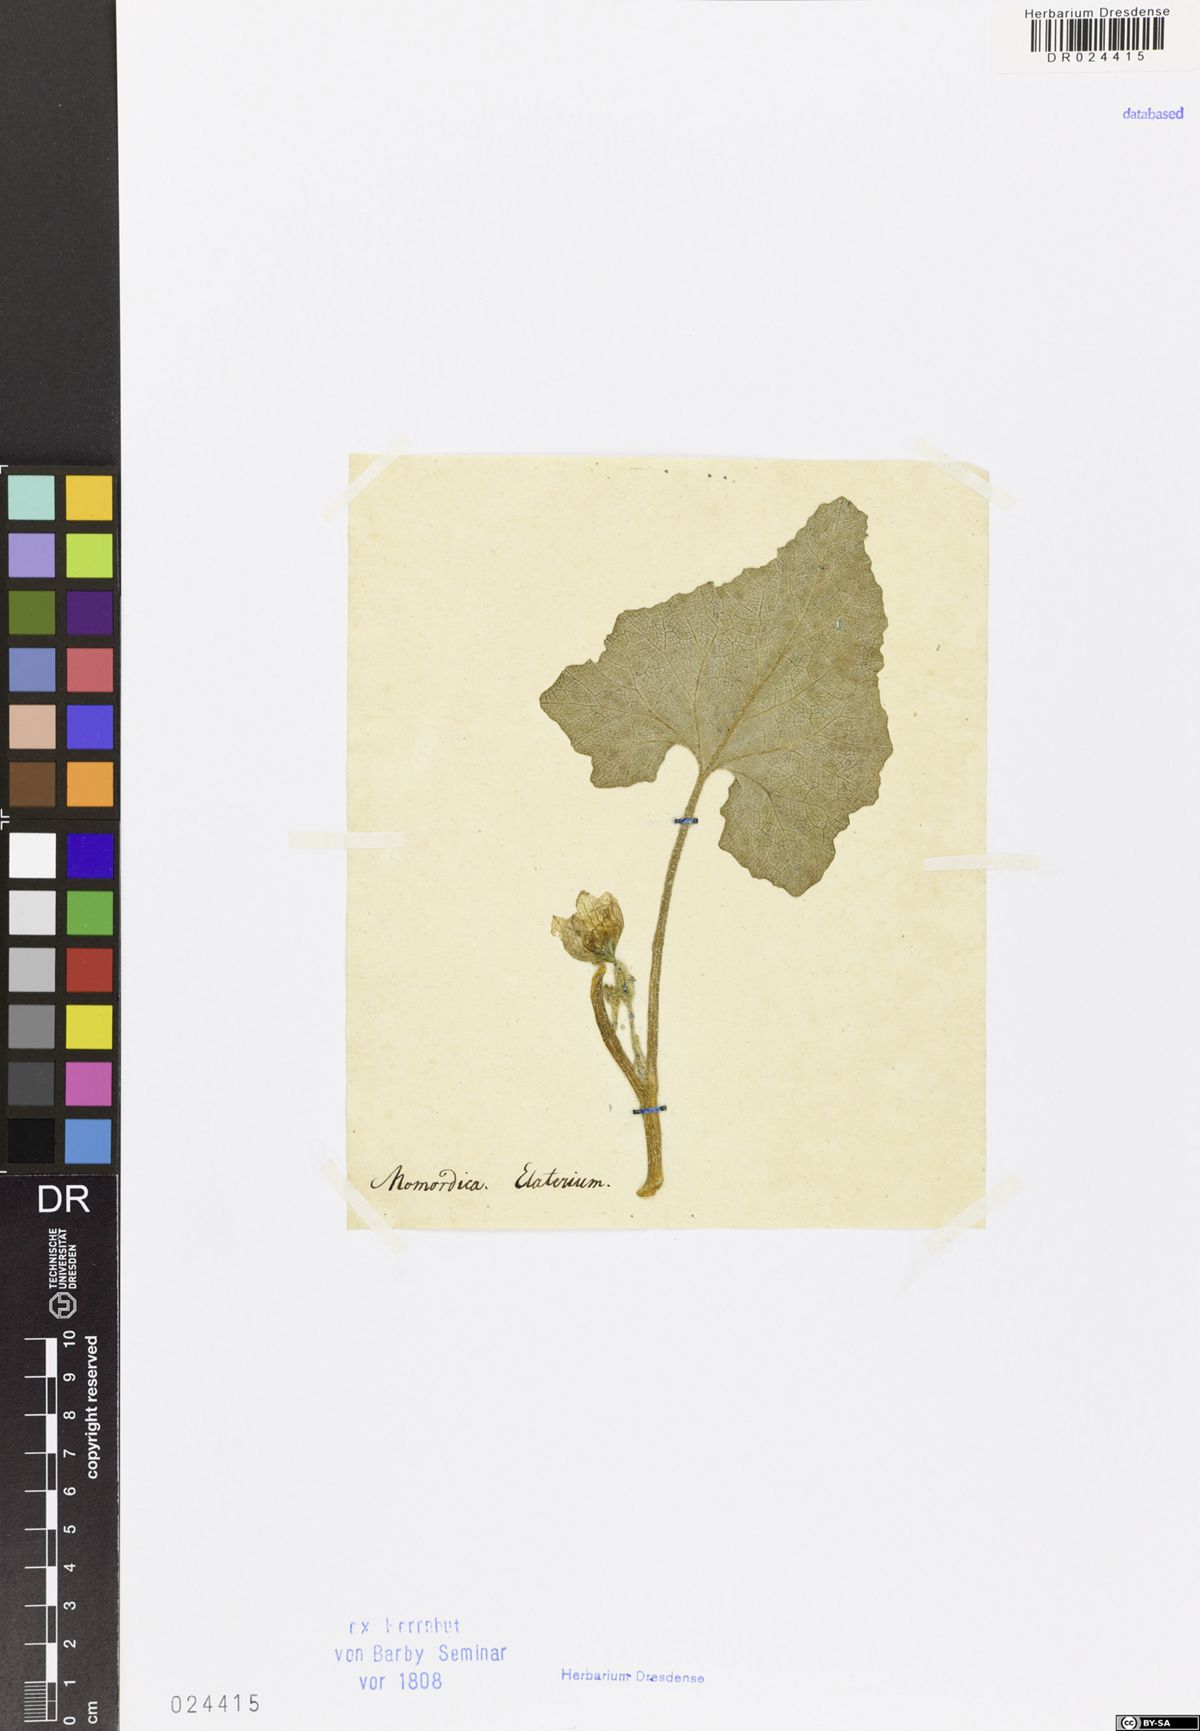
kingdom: Plantae
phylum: Tracheophyta
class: Magnoliopsida
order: Cucurbitales
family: Cucurbitaceae
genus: Ecballium
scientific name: Ecballium elaterium
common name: Squirting cucumber
